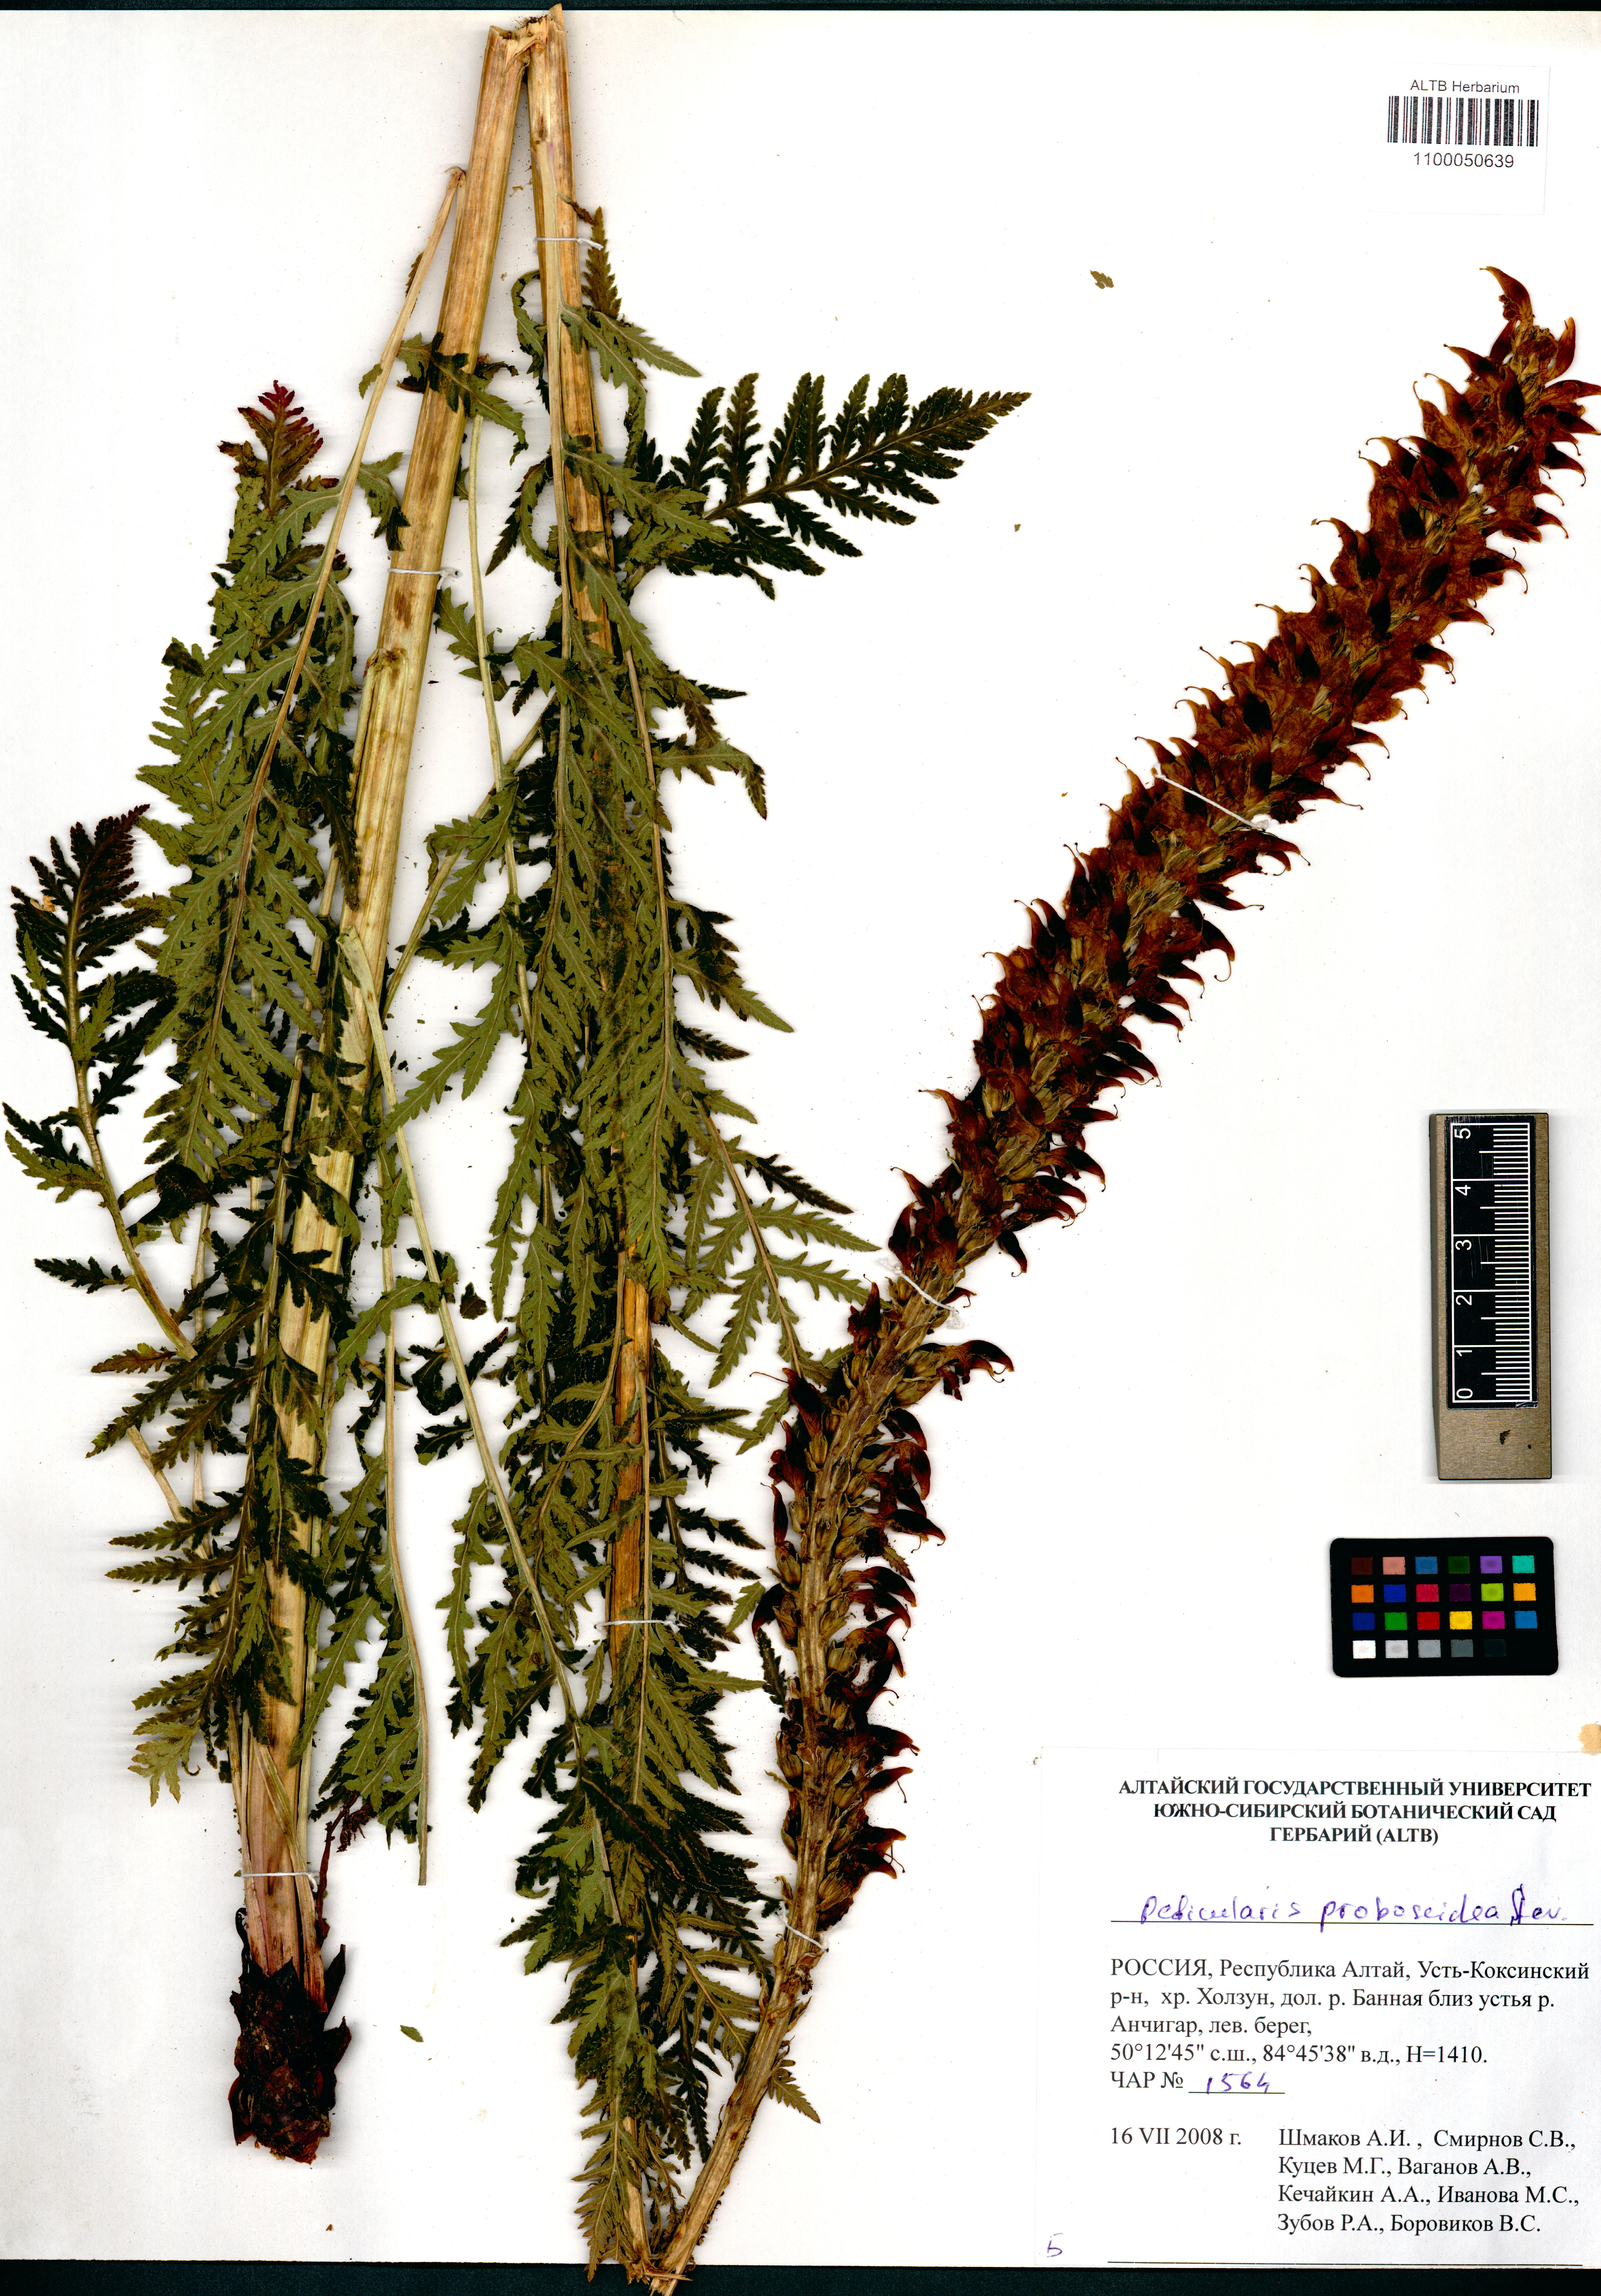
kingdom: Plantae
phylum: Tracheophyta
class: Magnoliopsida
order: Lamiales
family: Orobanchaceae
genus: Pedicularis
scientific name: Pedicularis proboscidea
